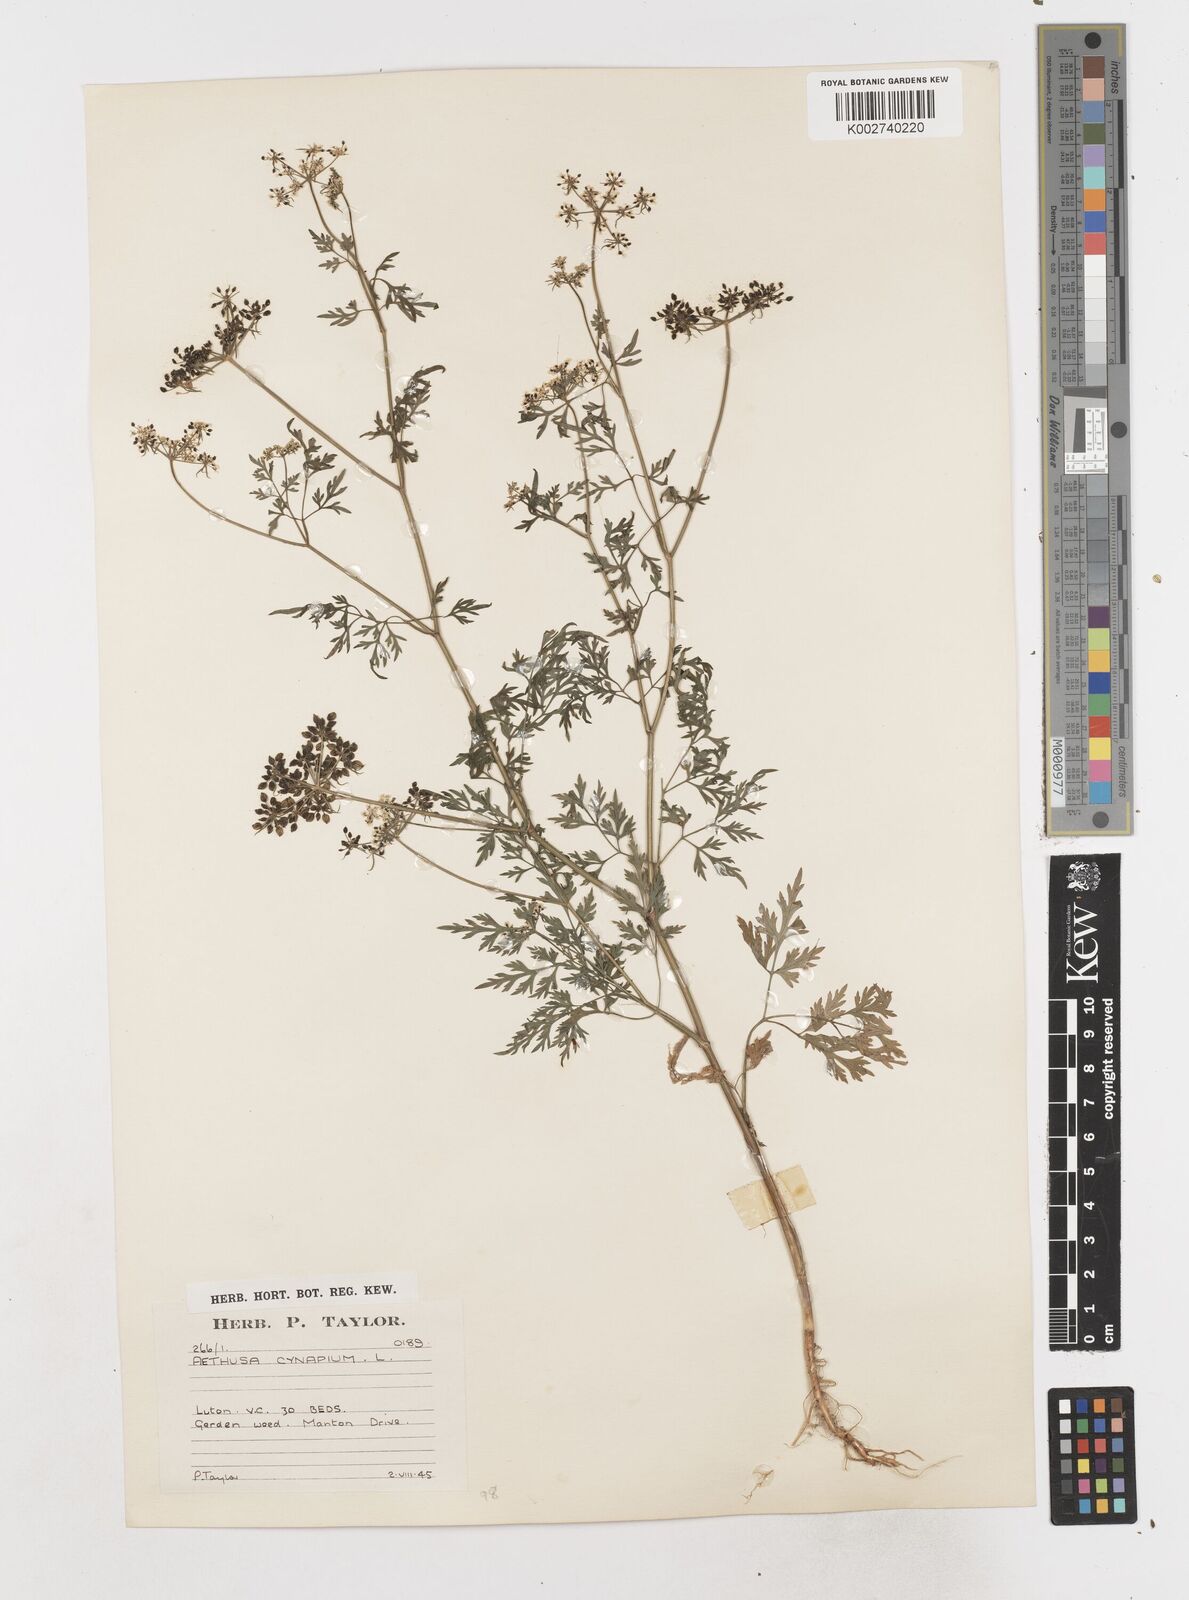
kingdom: Plantae
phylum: Tracheophyta
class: Magnoliopsida
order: Apiales
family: Apiaceae
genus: Aethusa
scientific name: Aethusa cynapium
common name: Fool's parsley
